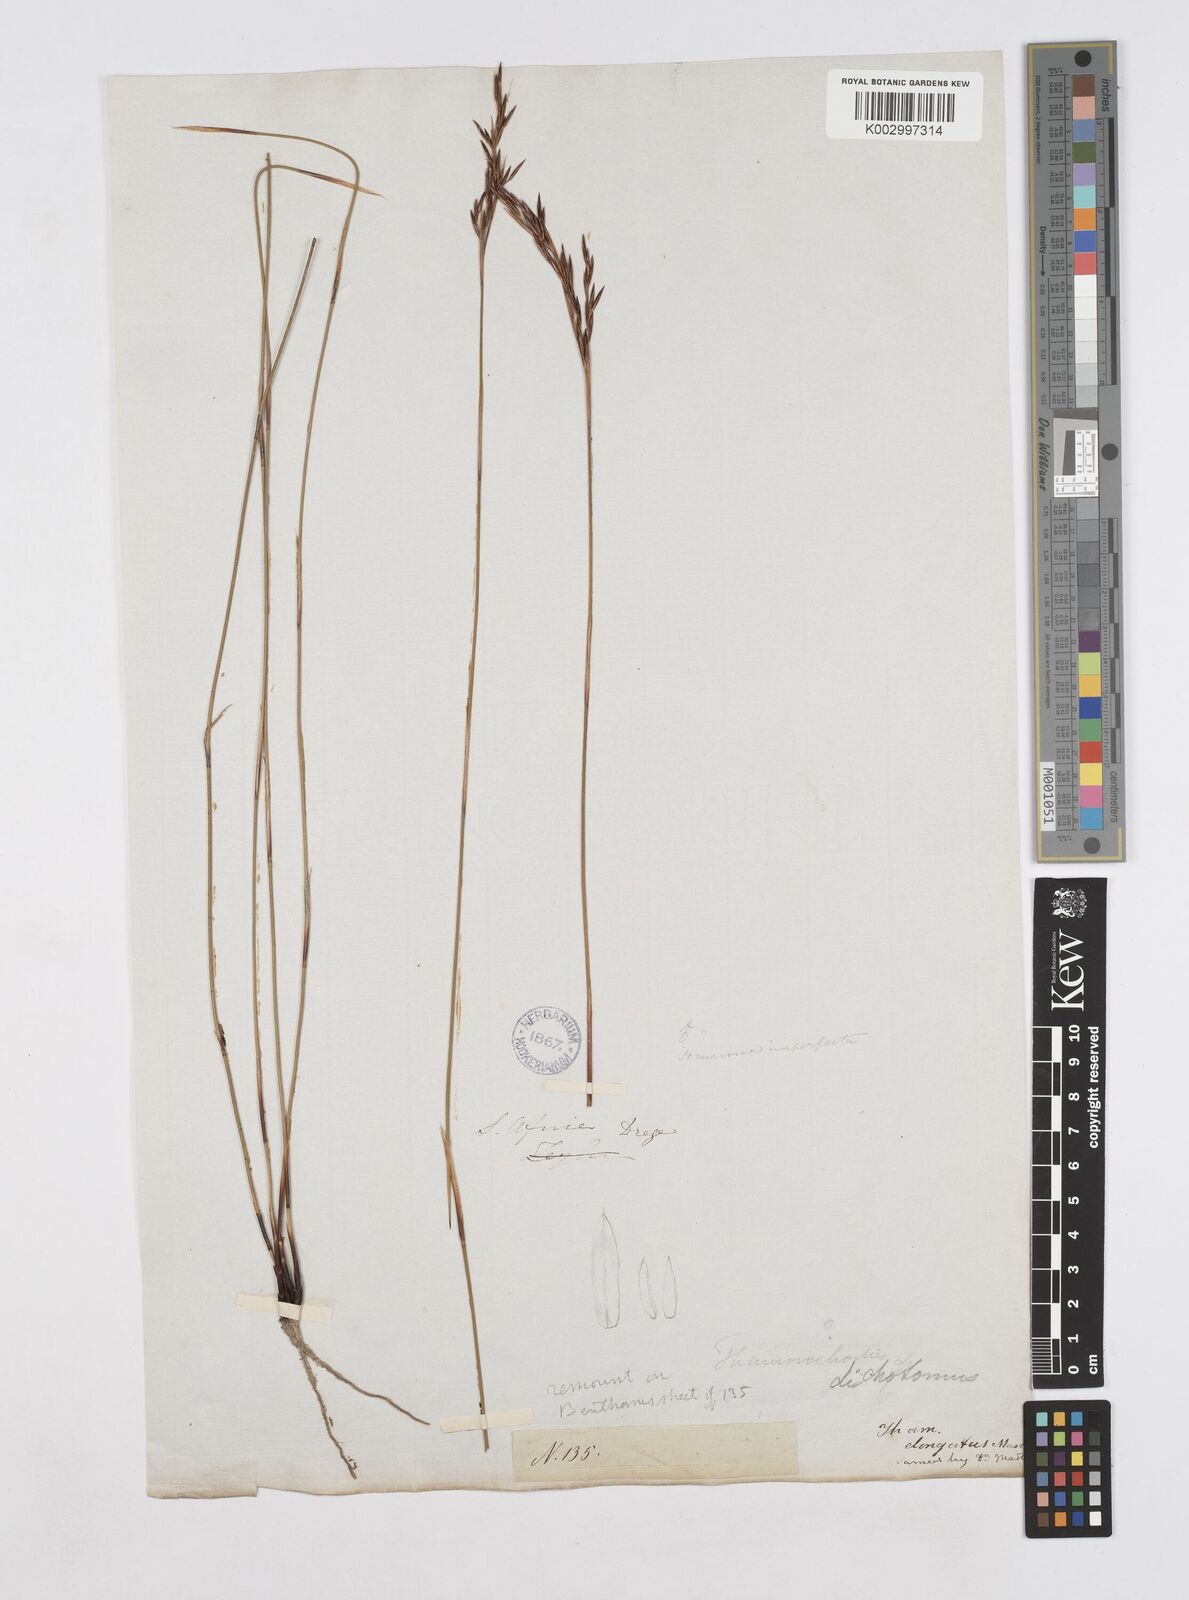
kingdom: Plantae
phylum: Tracheophyta
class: Liliopsida
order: Poales
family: Restionaceae
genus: Thamnochortus
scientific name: Thamnochortus
